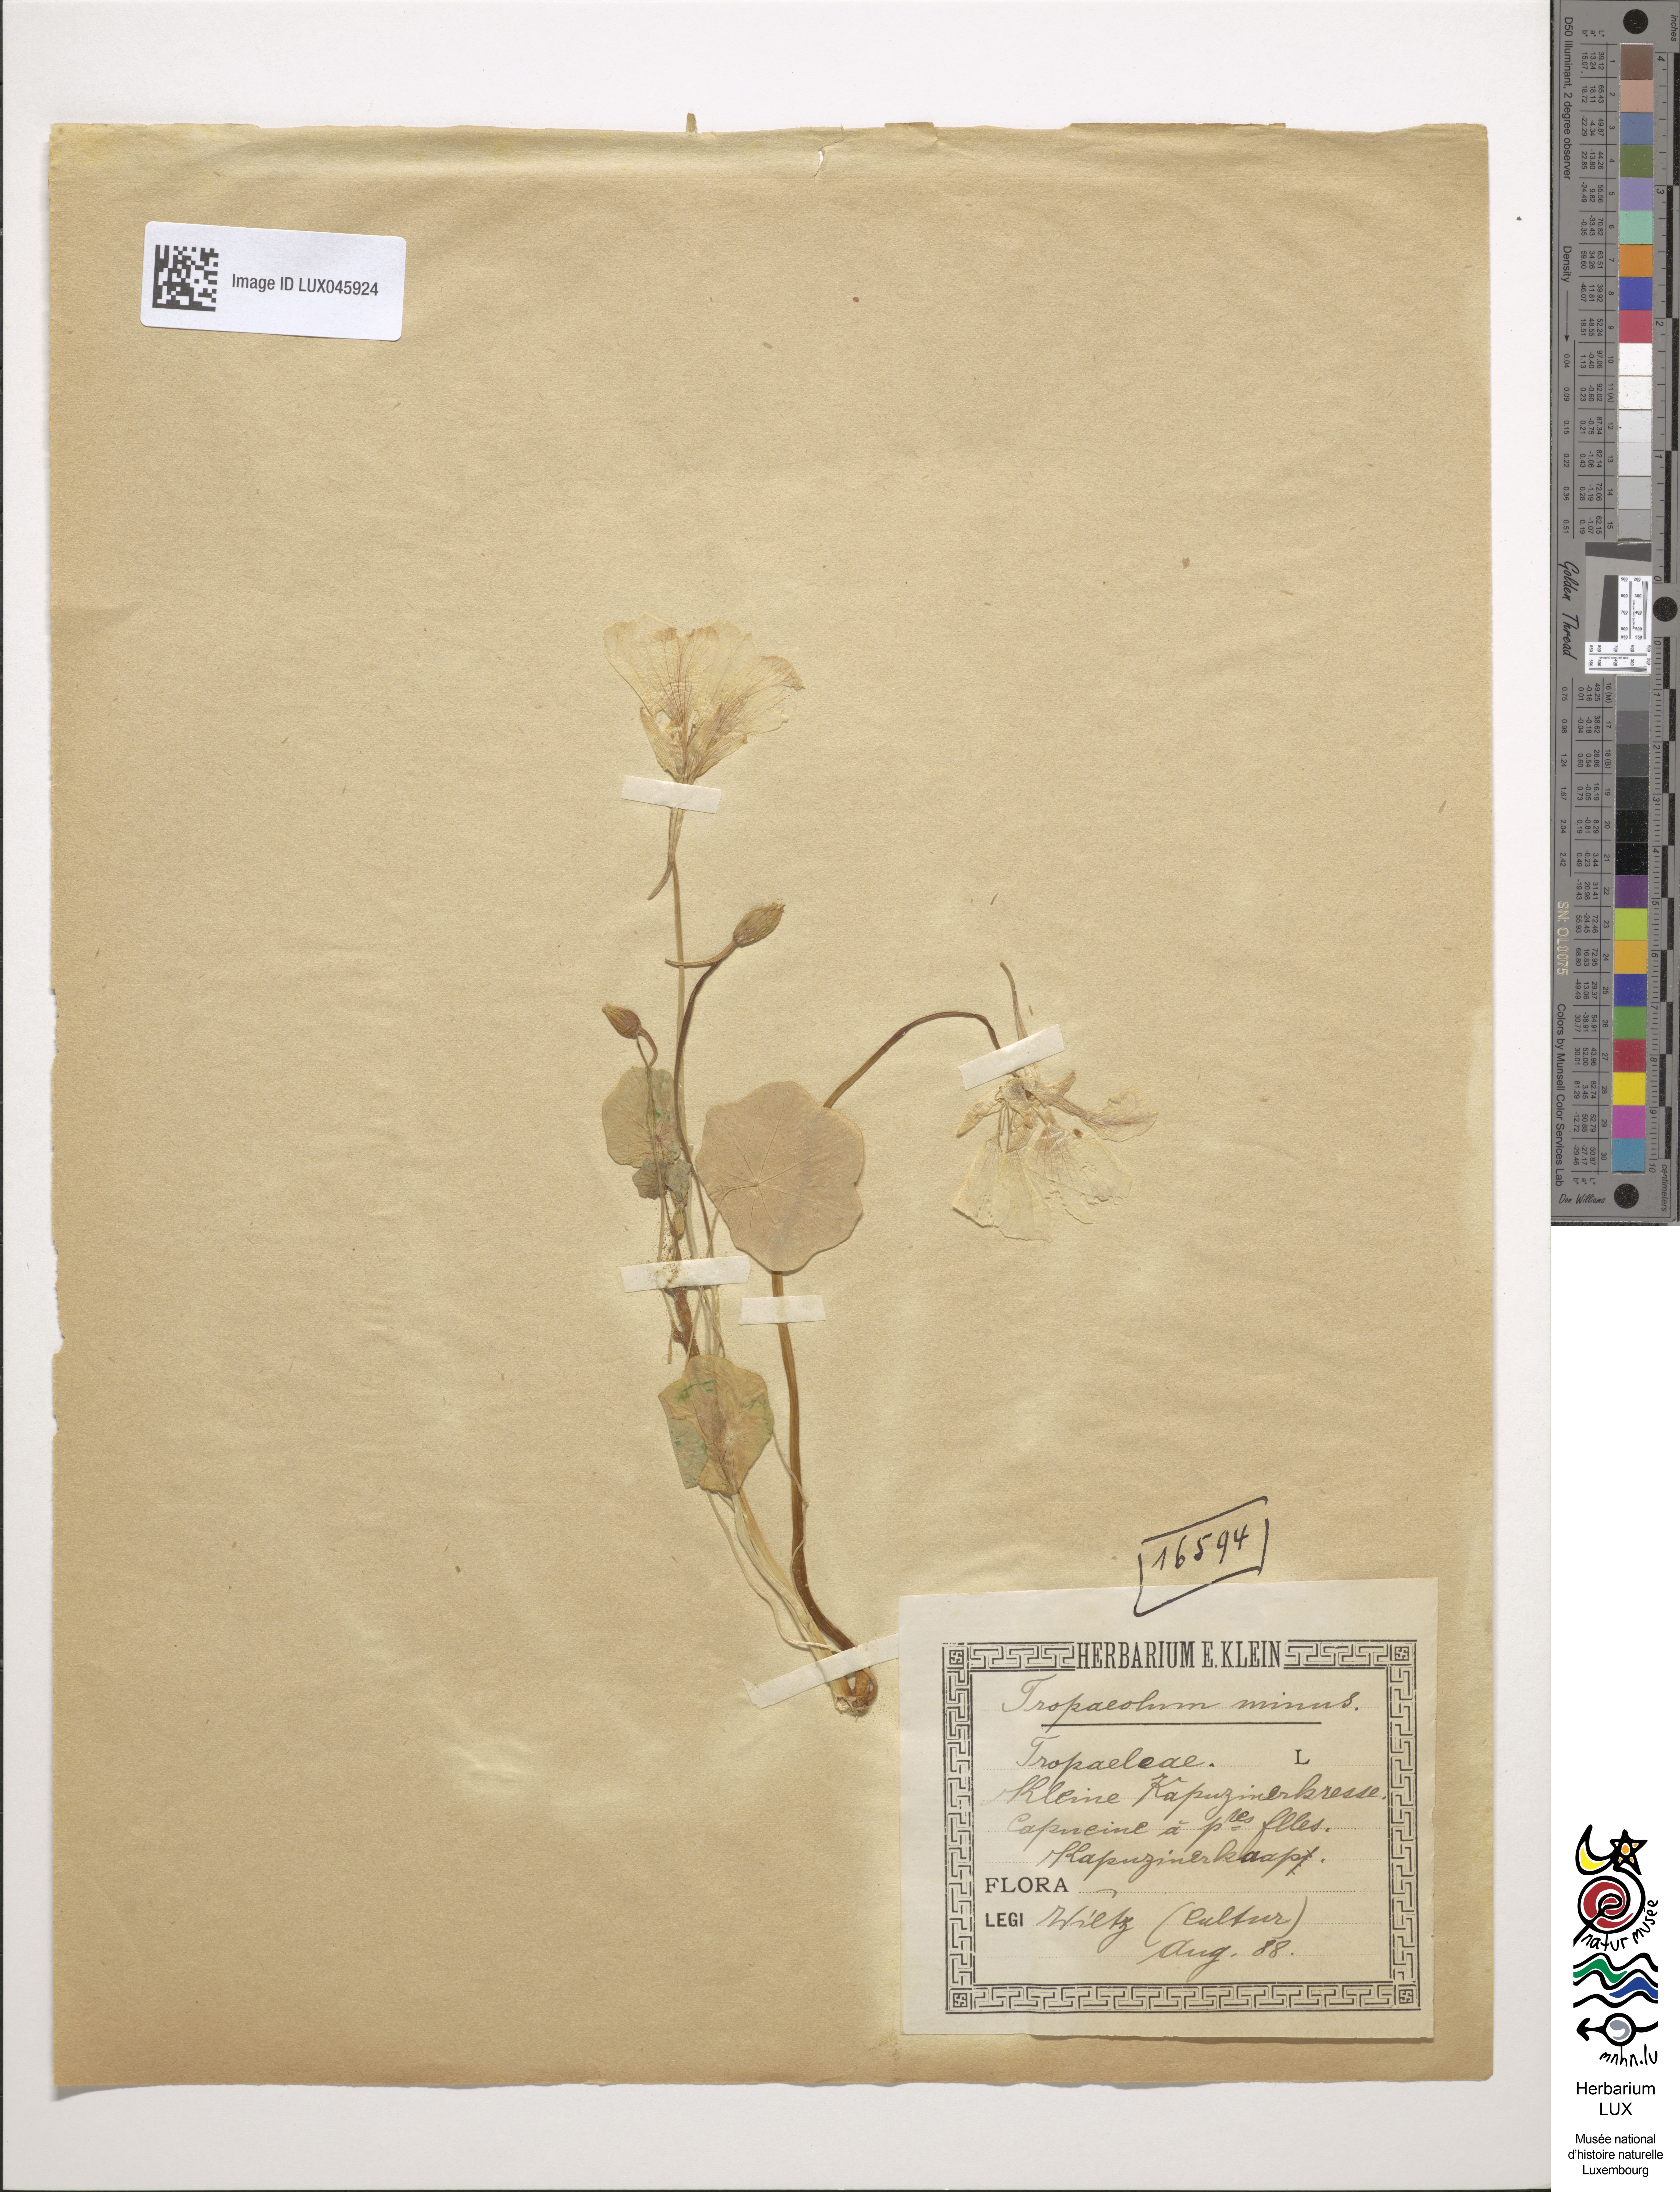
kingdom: Plantae
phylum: Tracheophyta
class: Magnoliopsida
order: Brassicales
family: Tropaeolaceae
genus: Tropaeolum
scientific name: Tropaeolum minus
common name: Dwarf nasturtium
